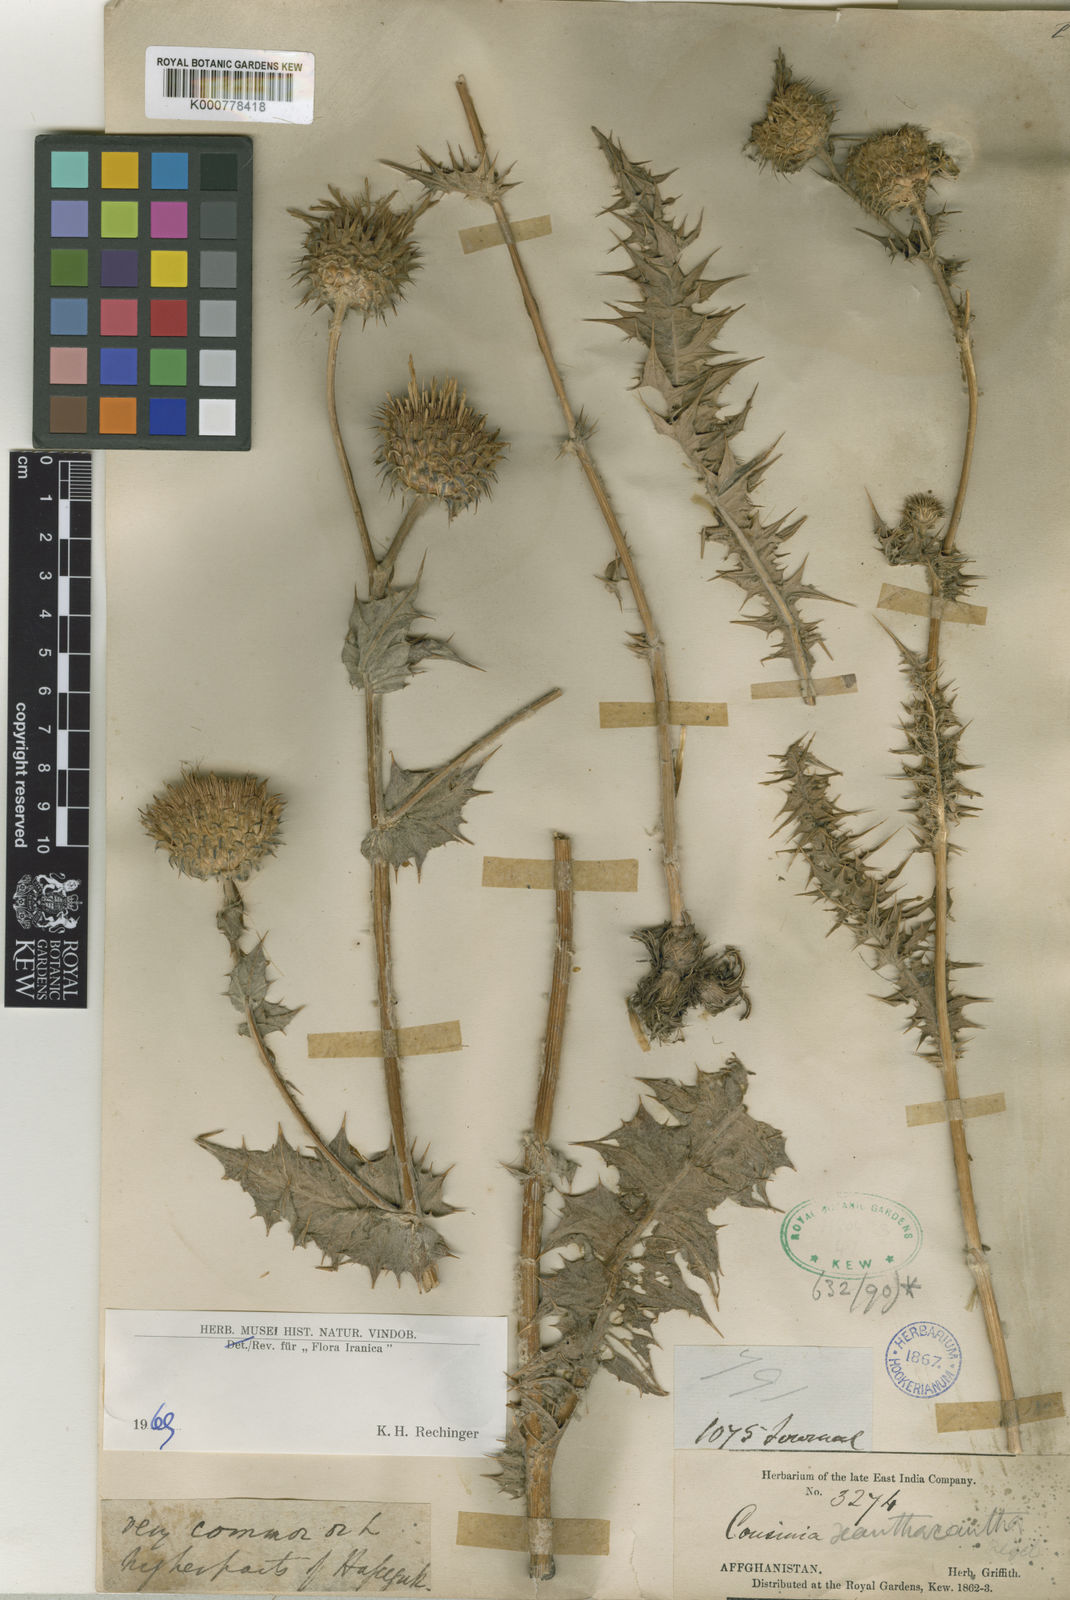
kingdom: Plantae
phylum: Tracheophyta
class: Magnoliopsida
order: Asterales
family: Asteraceae
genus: Cousinia
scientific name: Cousinia xanthacantha
